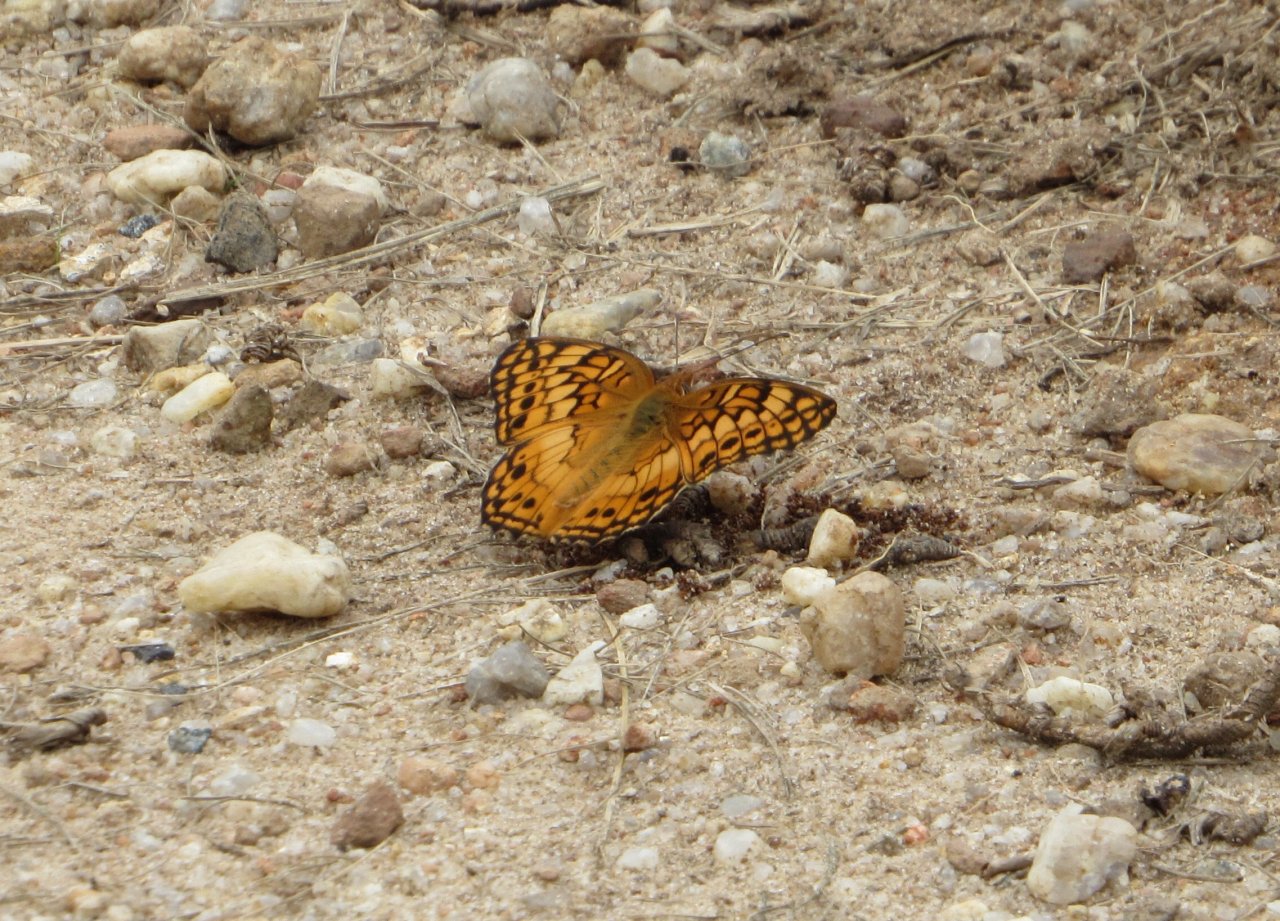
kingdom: Animalia
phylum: Arthropoda
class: Insecta
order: Lepidoptera
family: Nymphalidae
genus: Euptoieta
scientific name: Euptoieta claudia
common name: Variegated Fritillary
